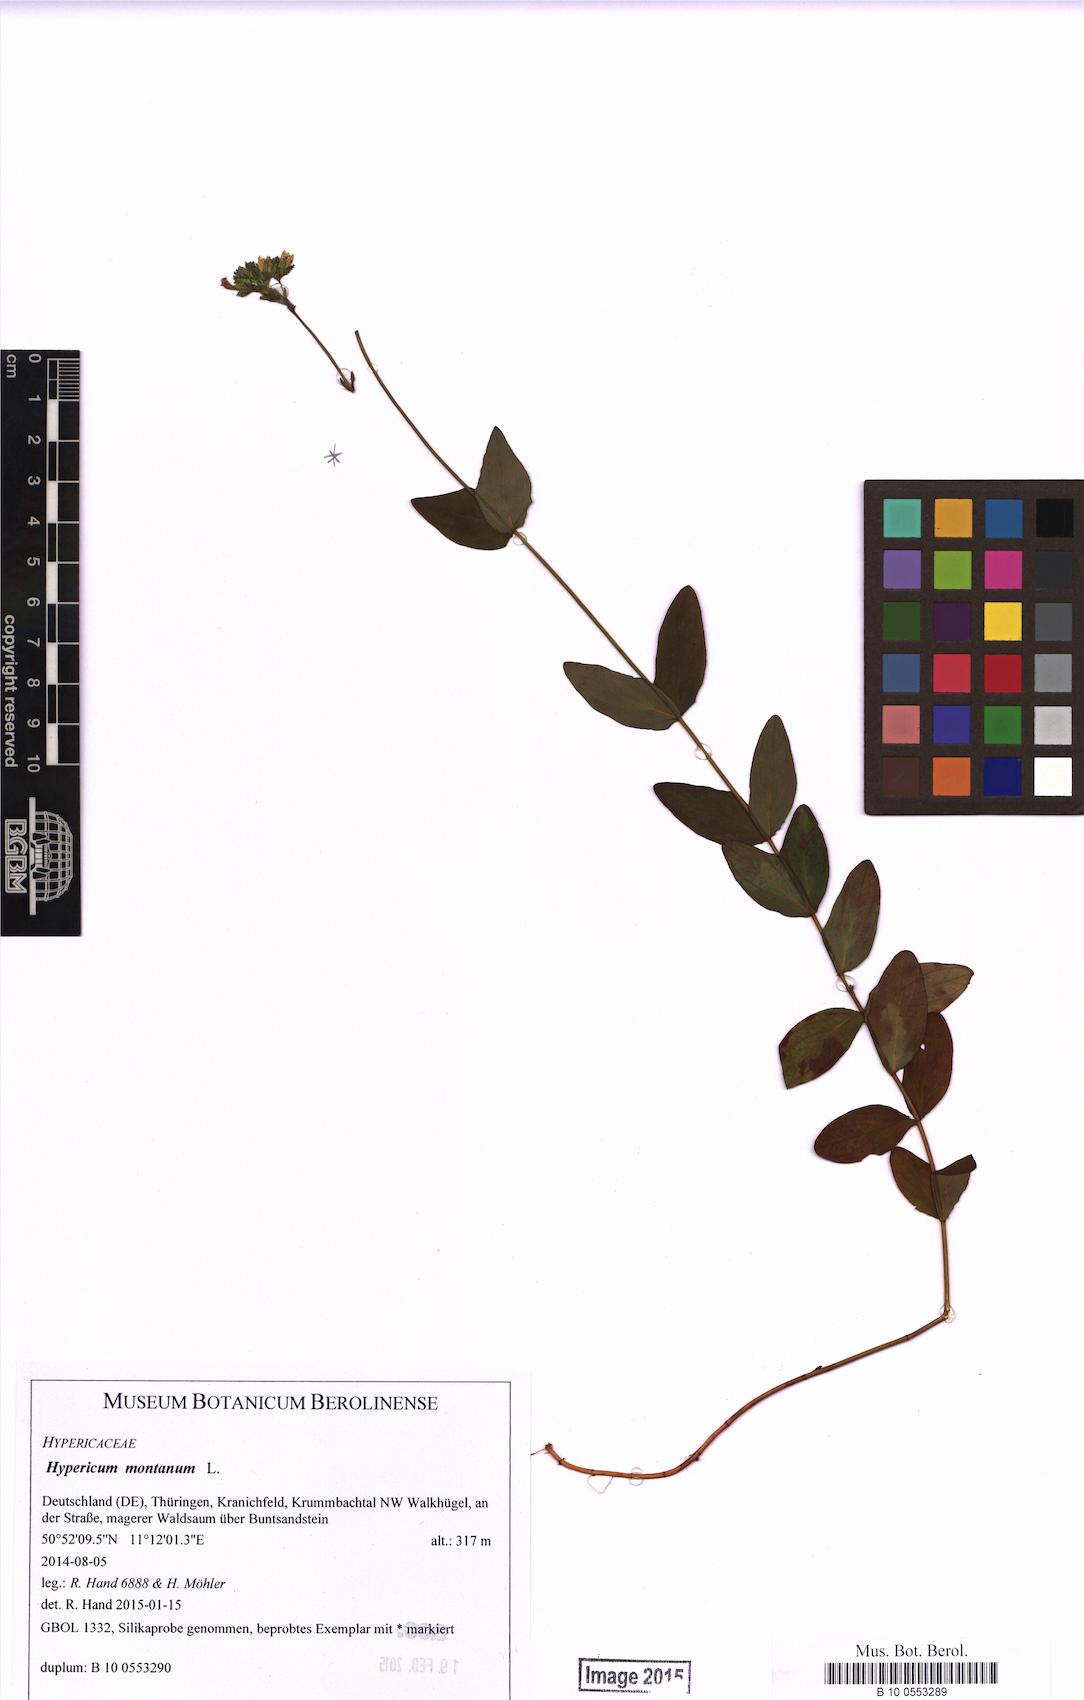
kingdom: Plantae
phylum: Tracheophyta
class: Magnoliopsida
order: Malpighiales
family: Hypericaceae
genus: Hypericum
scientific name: Hypericum montanum
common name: Pale st. john's-wort
